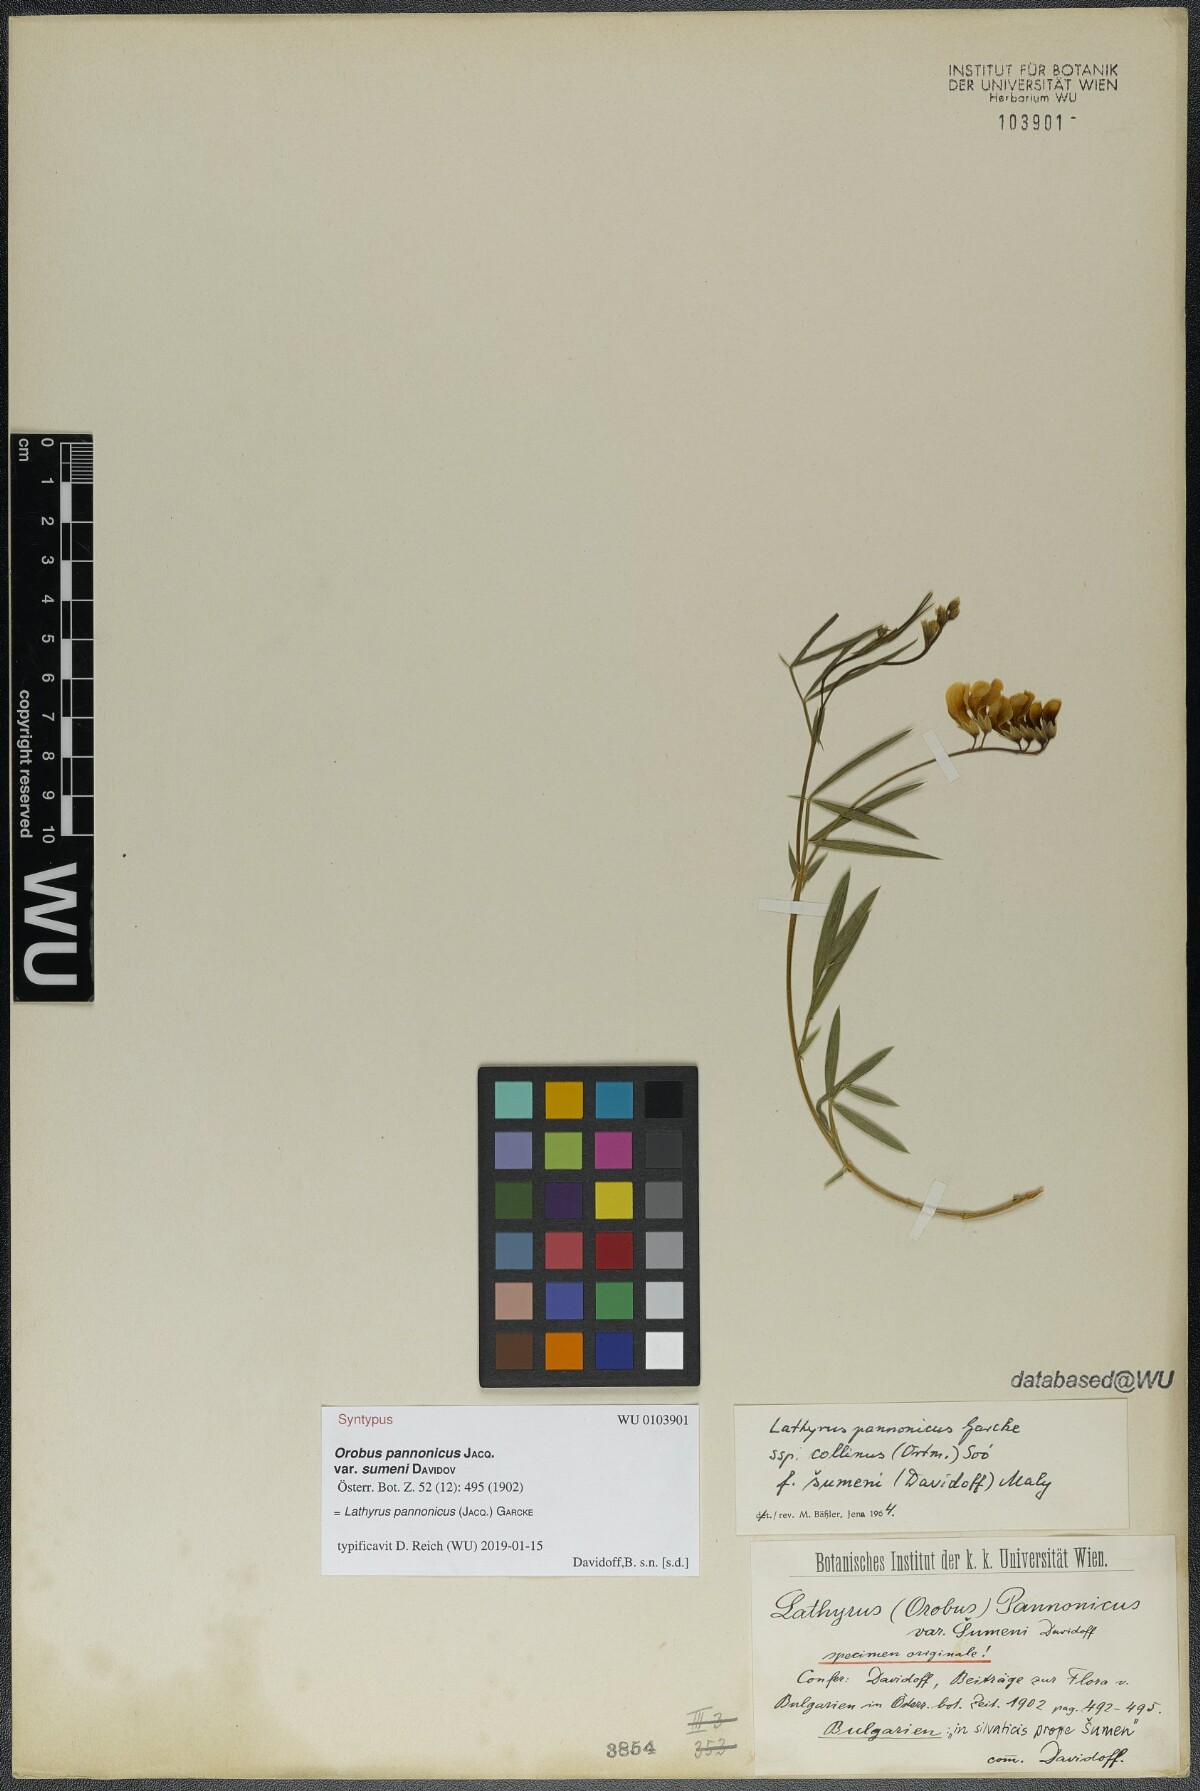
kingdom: Plantae
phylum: Tracheophyta
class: Magnoliopsida
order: Fabales
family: Fabaceae
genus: Lathyrus
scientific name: Lathyrus pannonicus
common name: Pea
